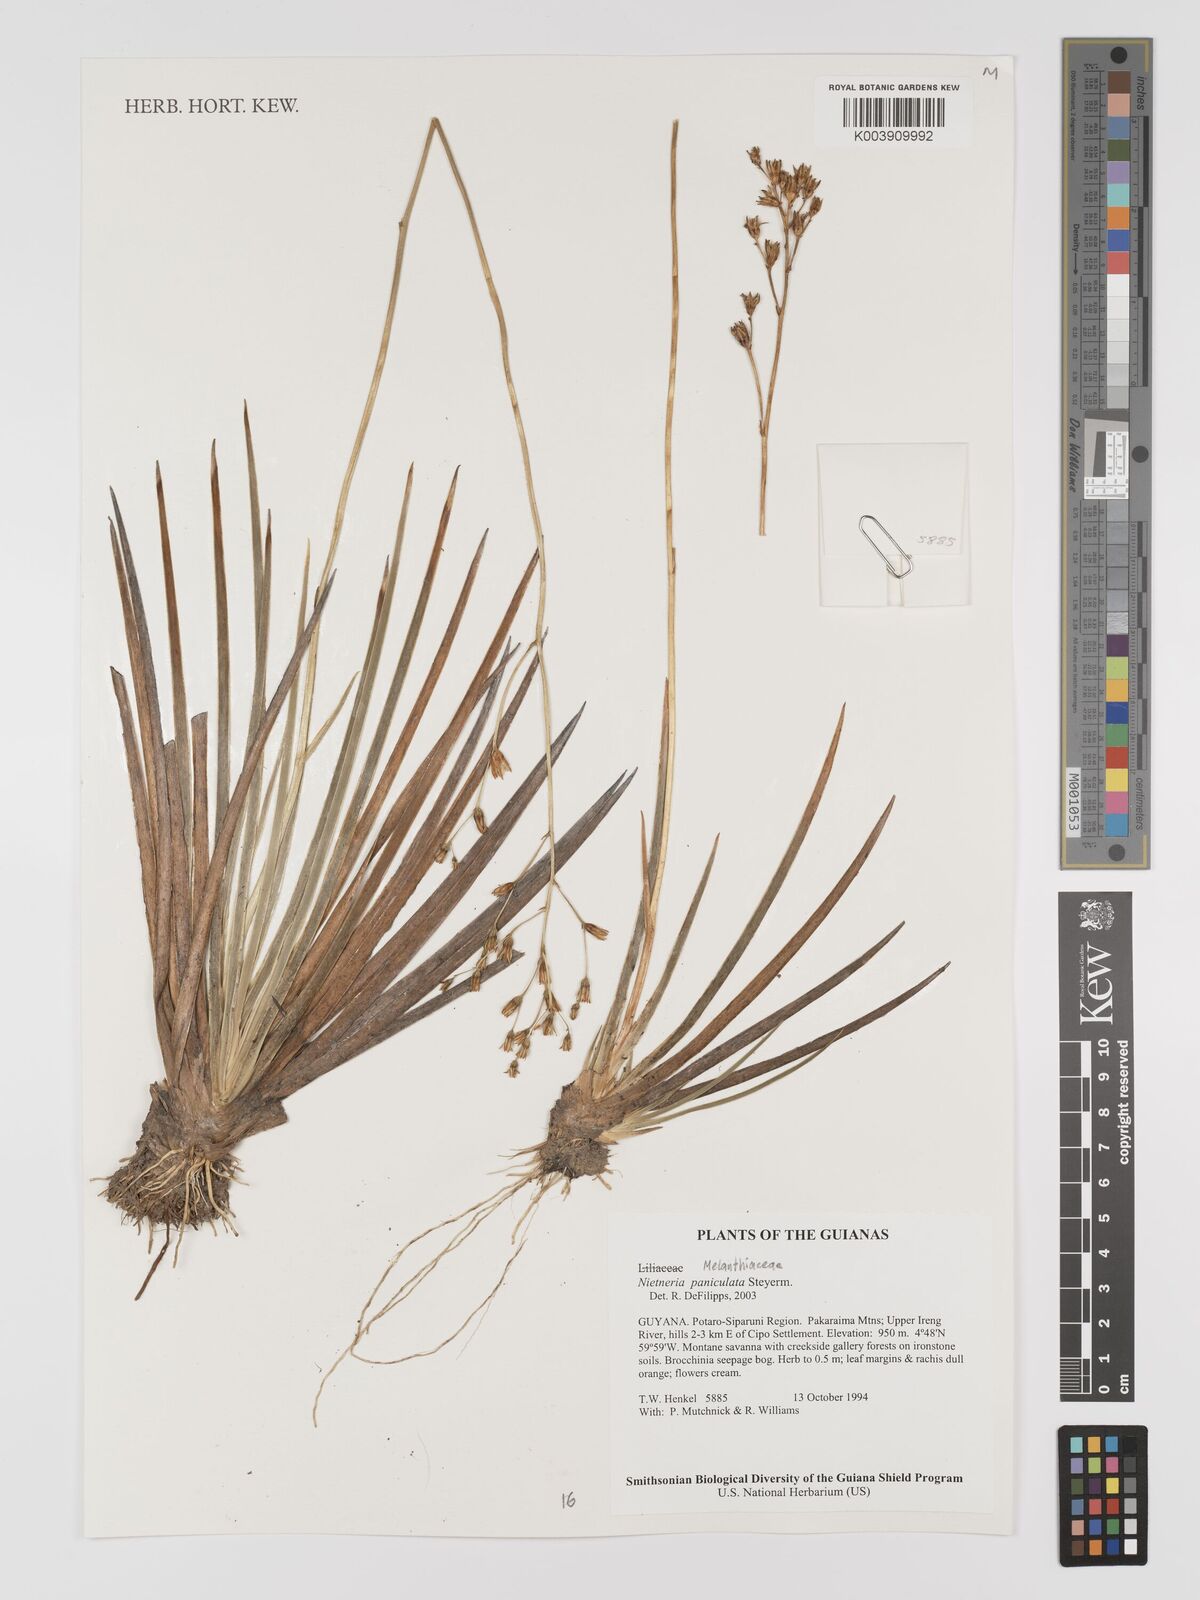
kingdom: Plantae
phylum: Tracheophyta
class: Liliopsida
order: Dioscoreales
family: Nartheciaceae
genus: Nietneria
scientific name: Nietneria paniculata
